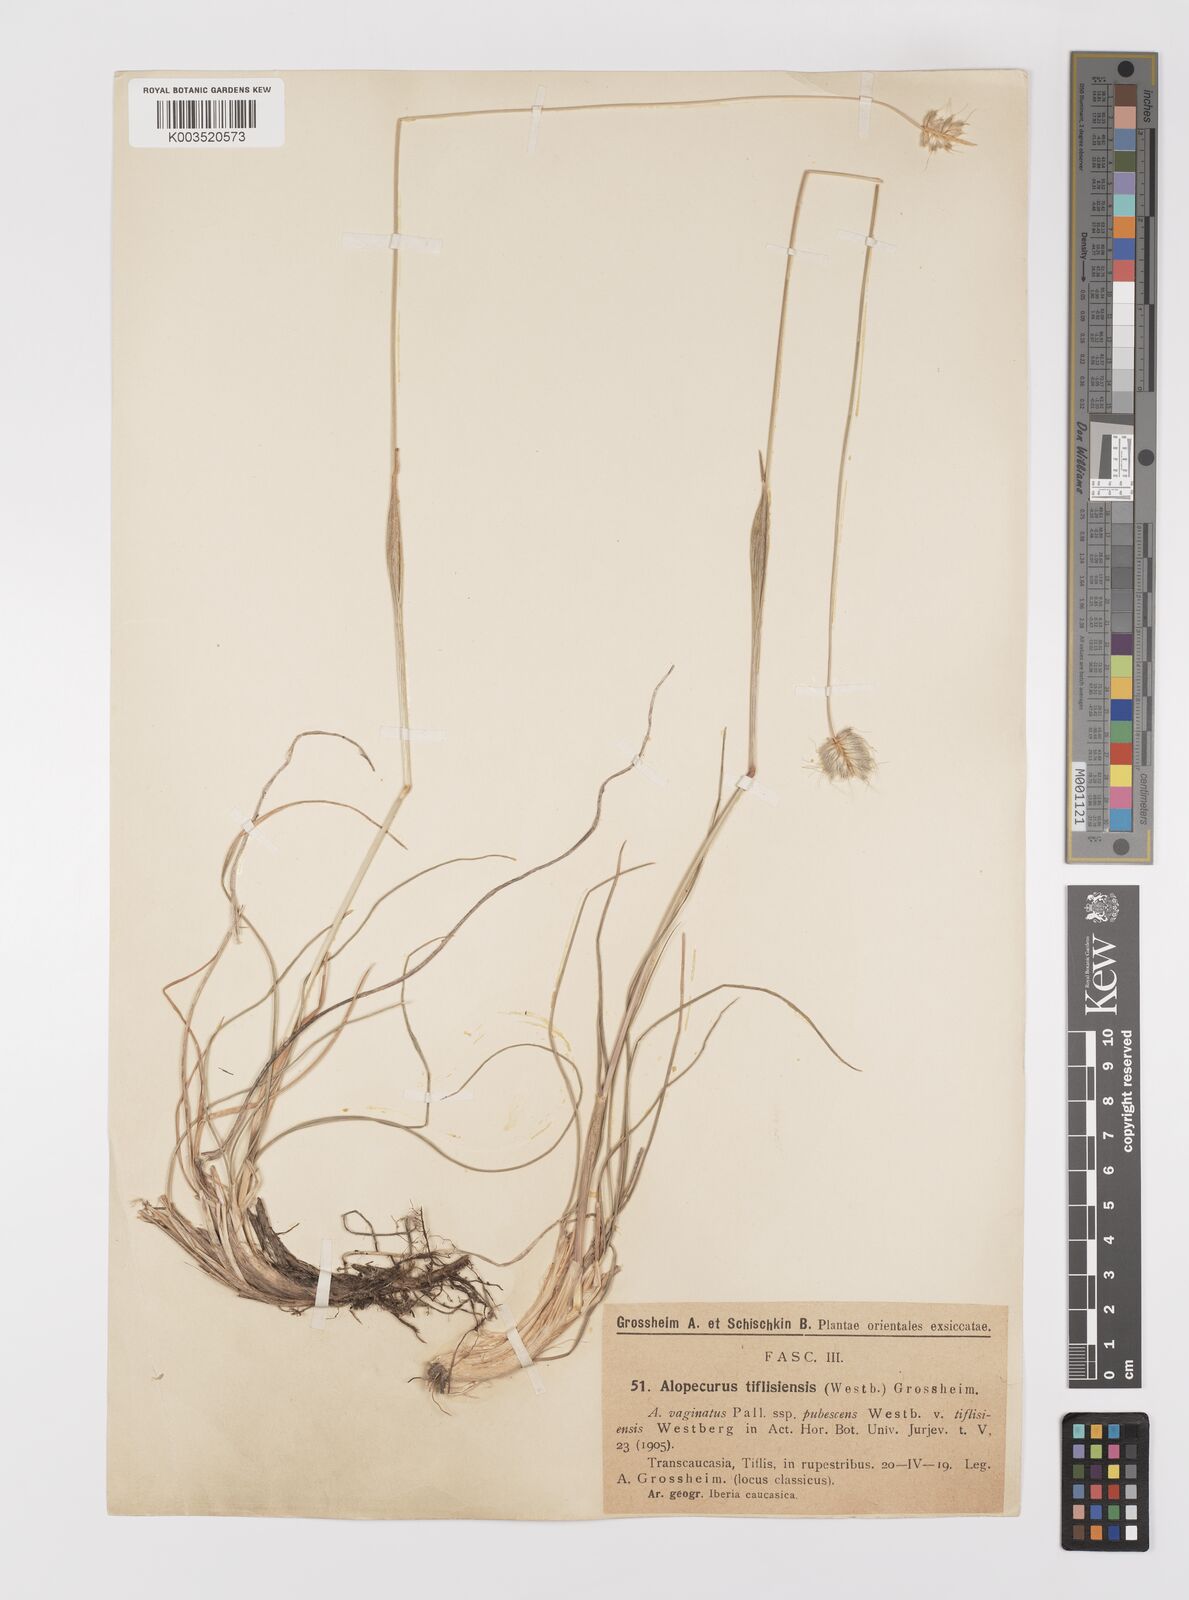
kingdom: Plantae
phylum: Tracheophyta
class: Liliopsida
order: Poales
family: Poaceae
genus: Alopecurus
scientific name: Alopecurus textilis
